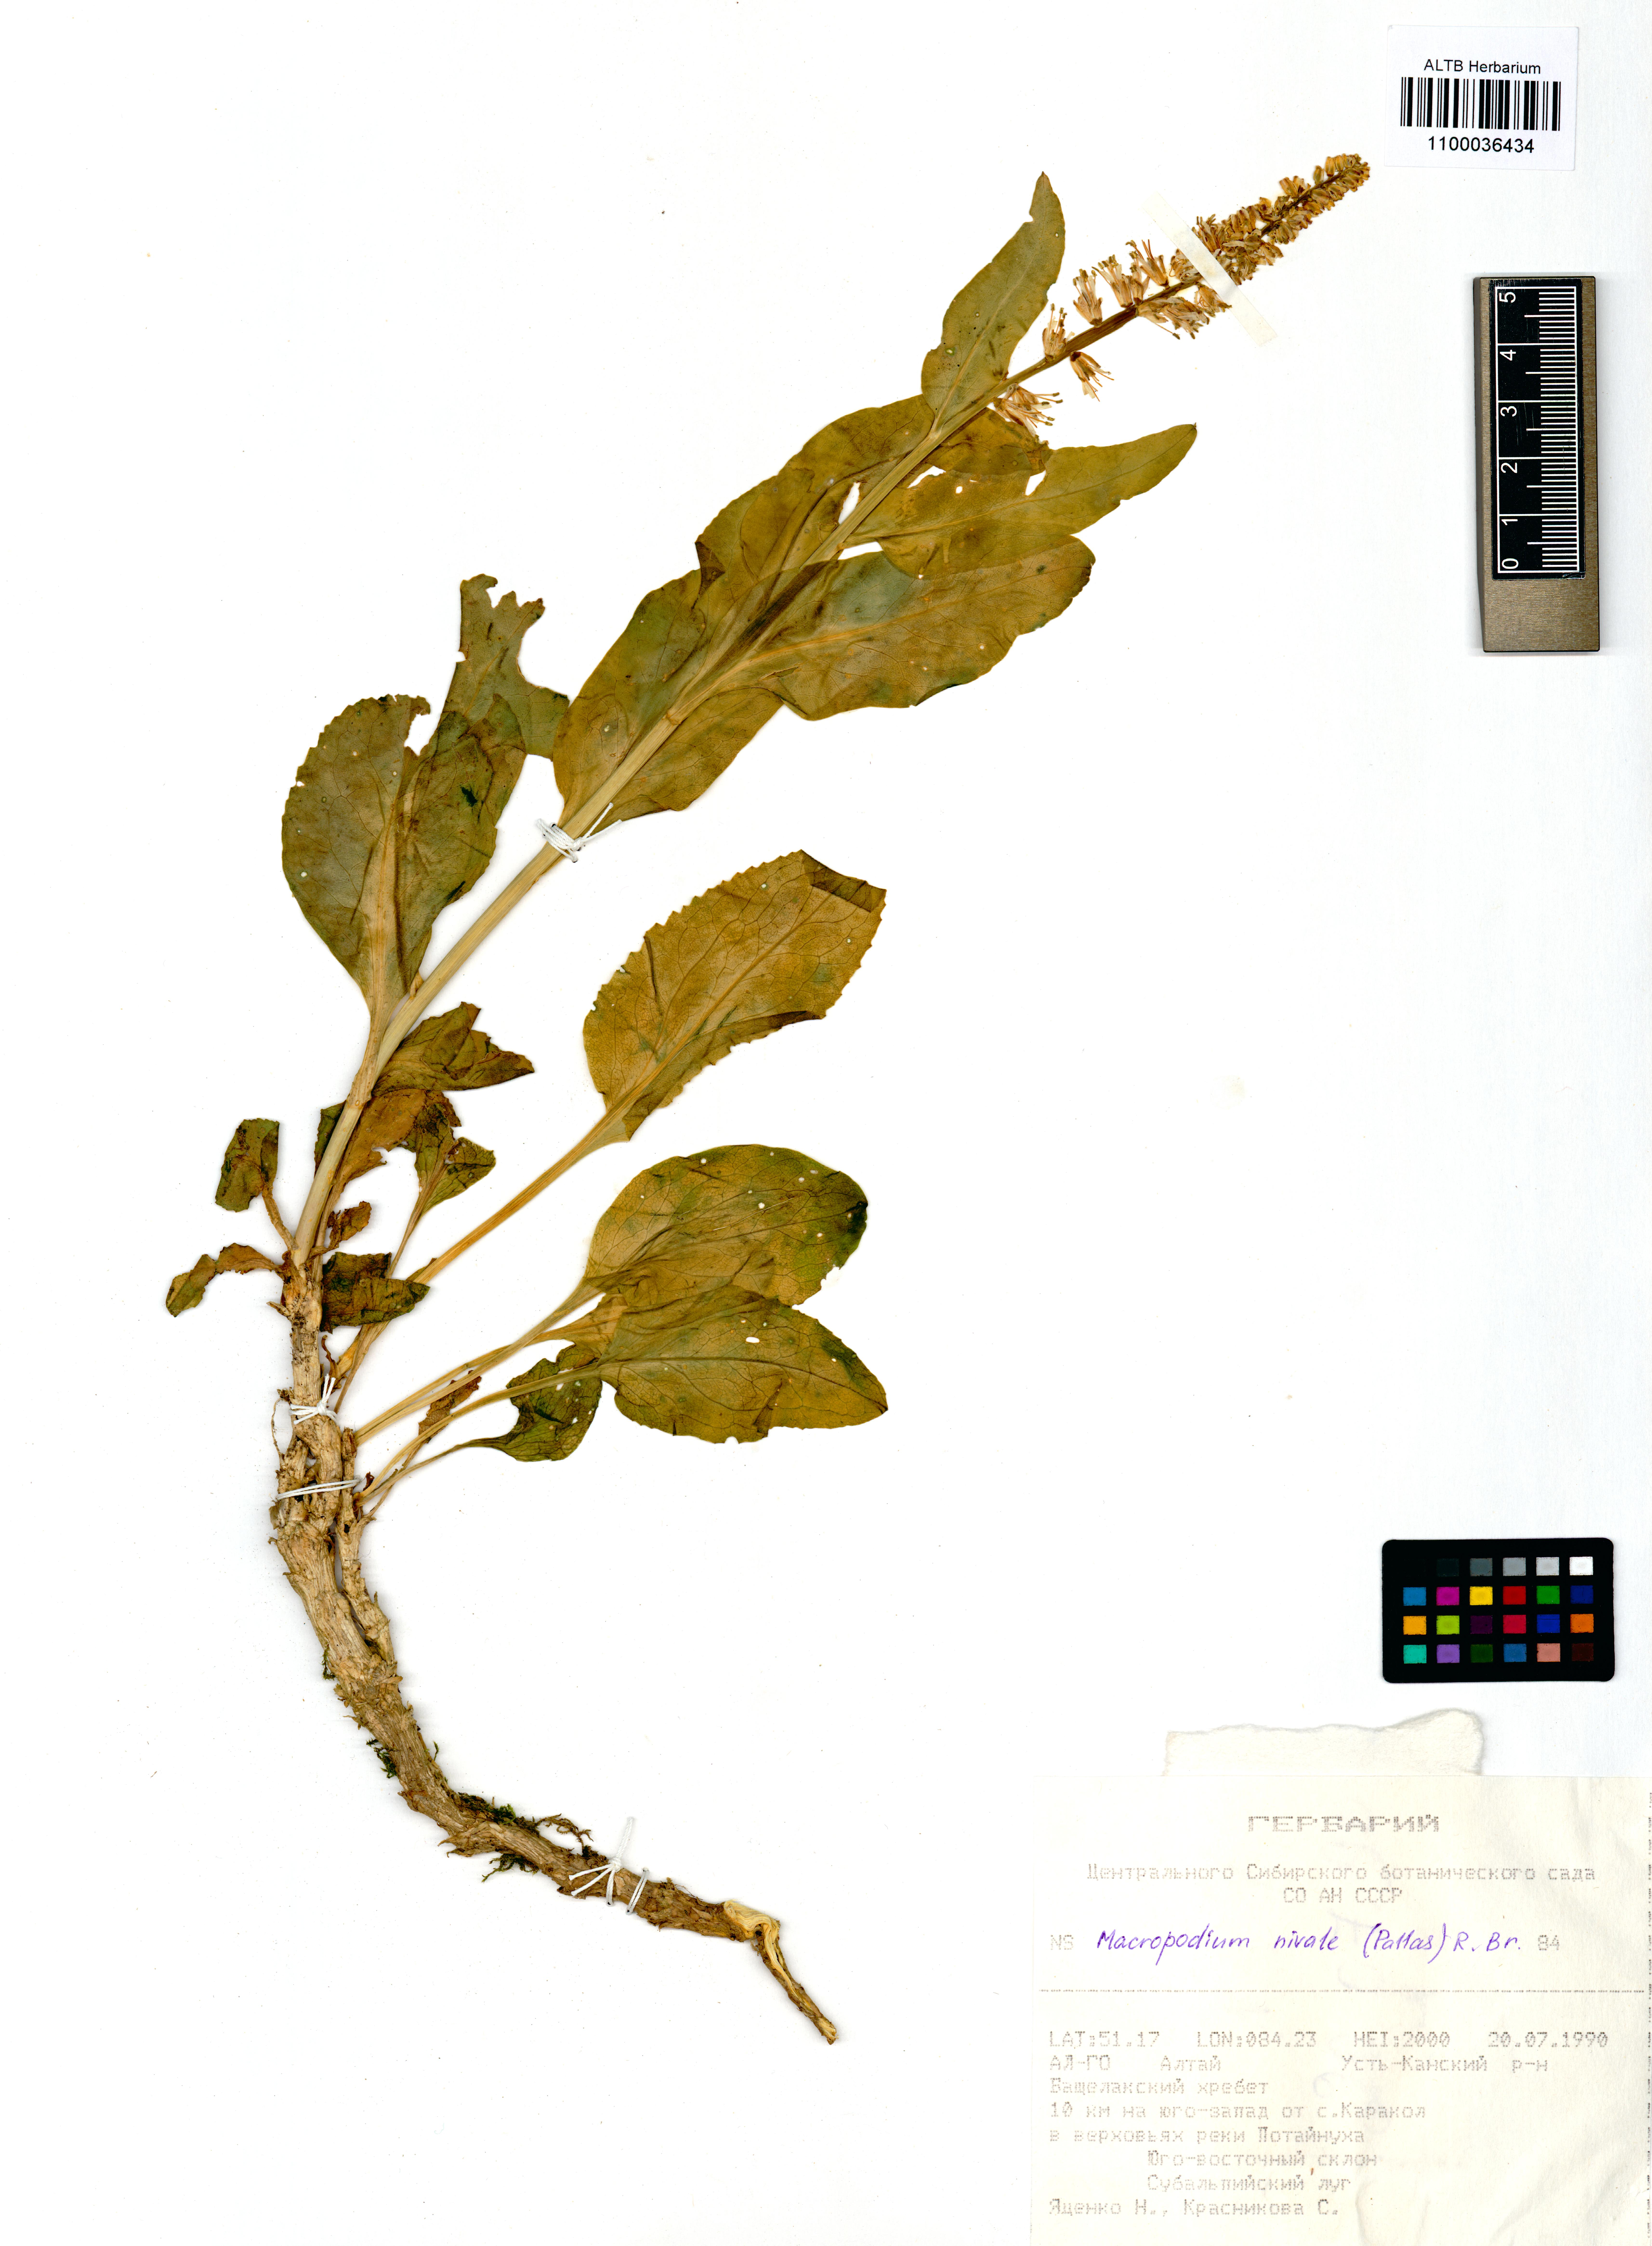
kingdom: Plantae
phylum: Tracheophyta
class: Magnoliopsida
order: Brassicales
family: Brassicaceae
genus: Macropodium
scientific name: Macropodium nivale
